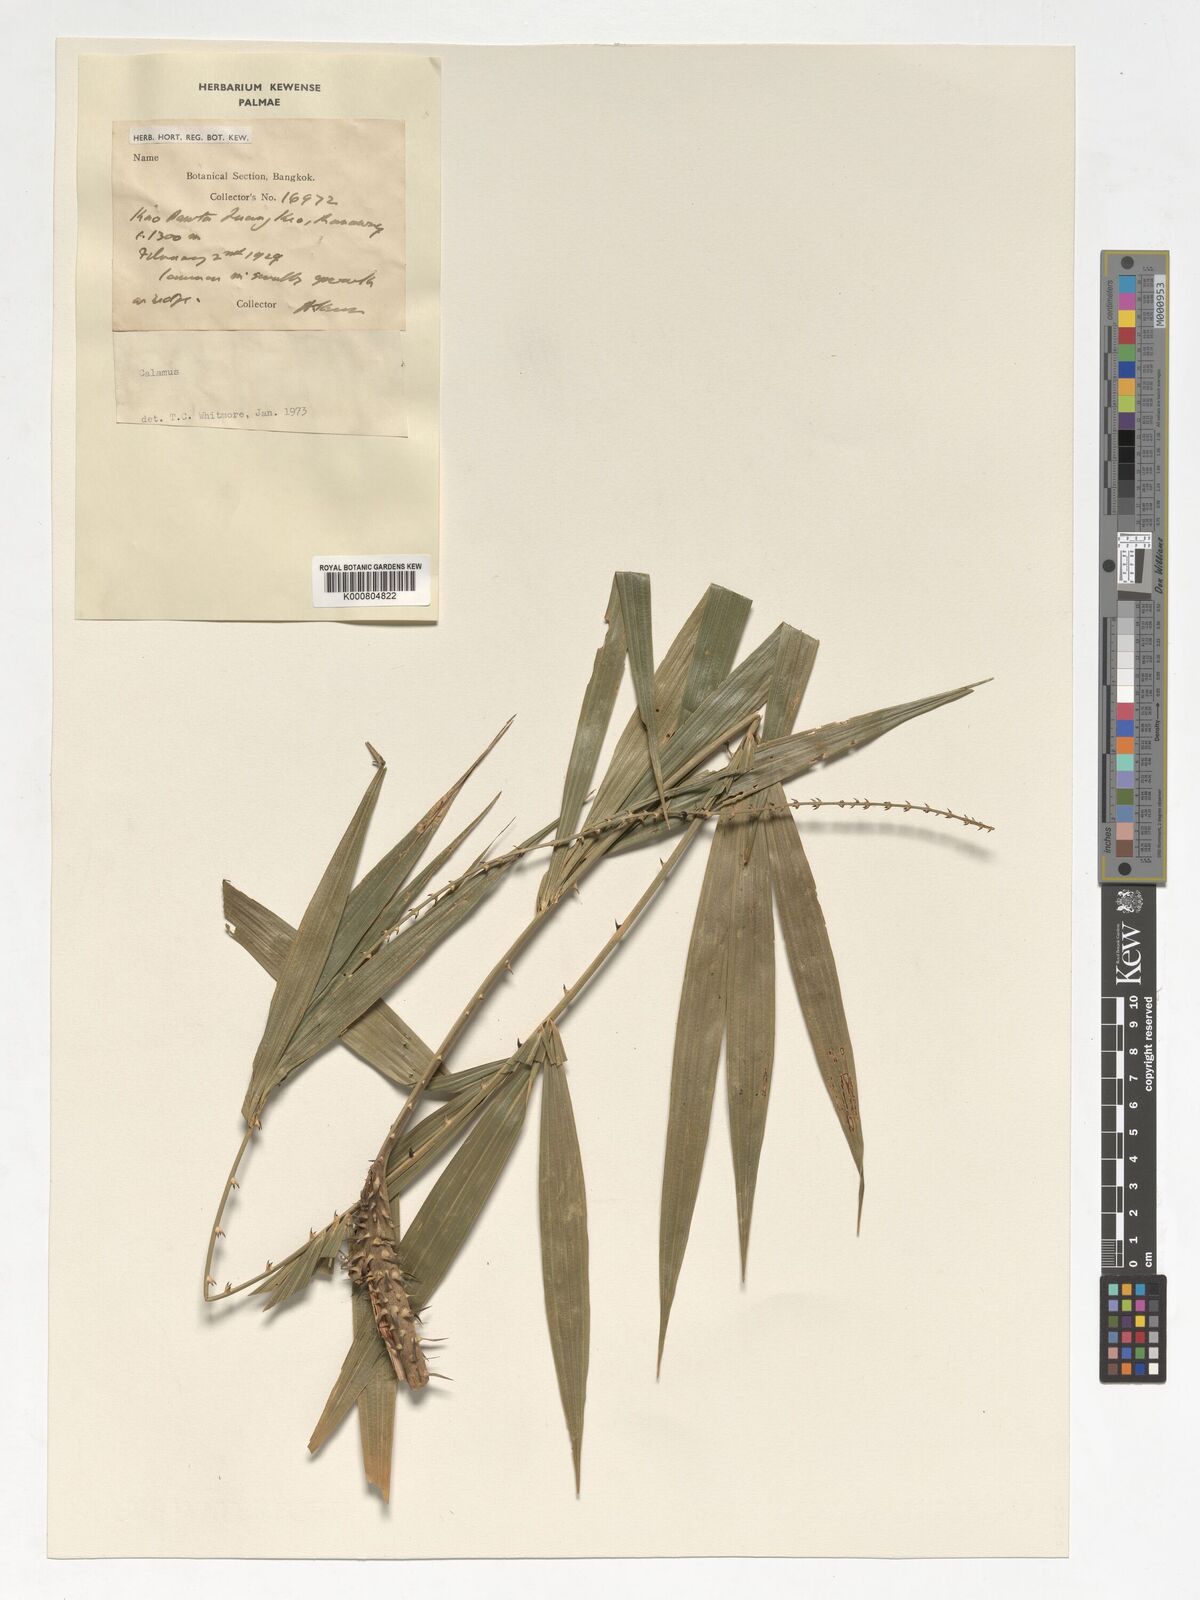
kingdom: Plantae
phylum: Tracheophyta
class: Liliopsida
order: Arecales
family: Arecaceae
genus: Calamus
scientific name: Calamus
